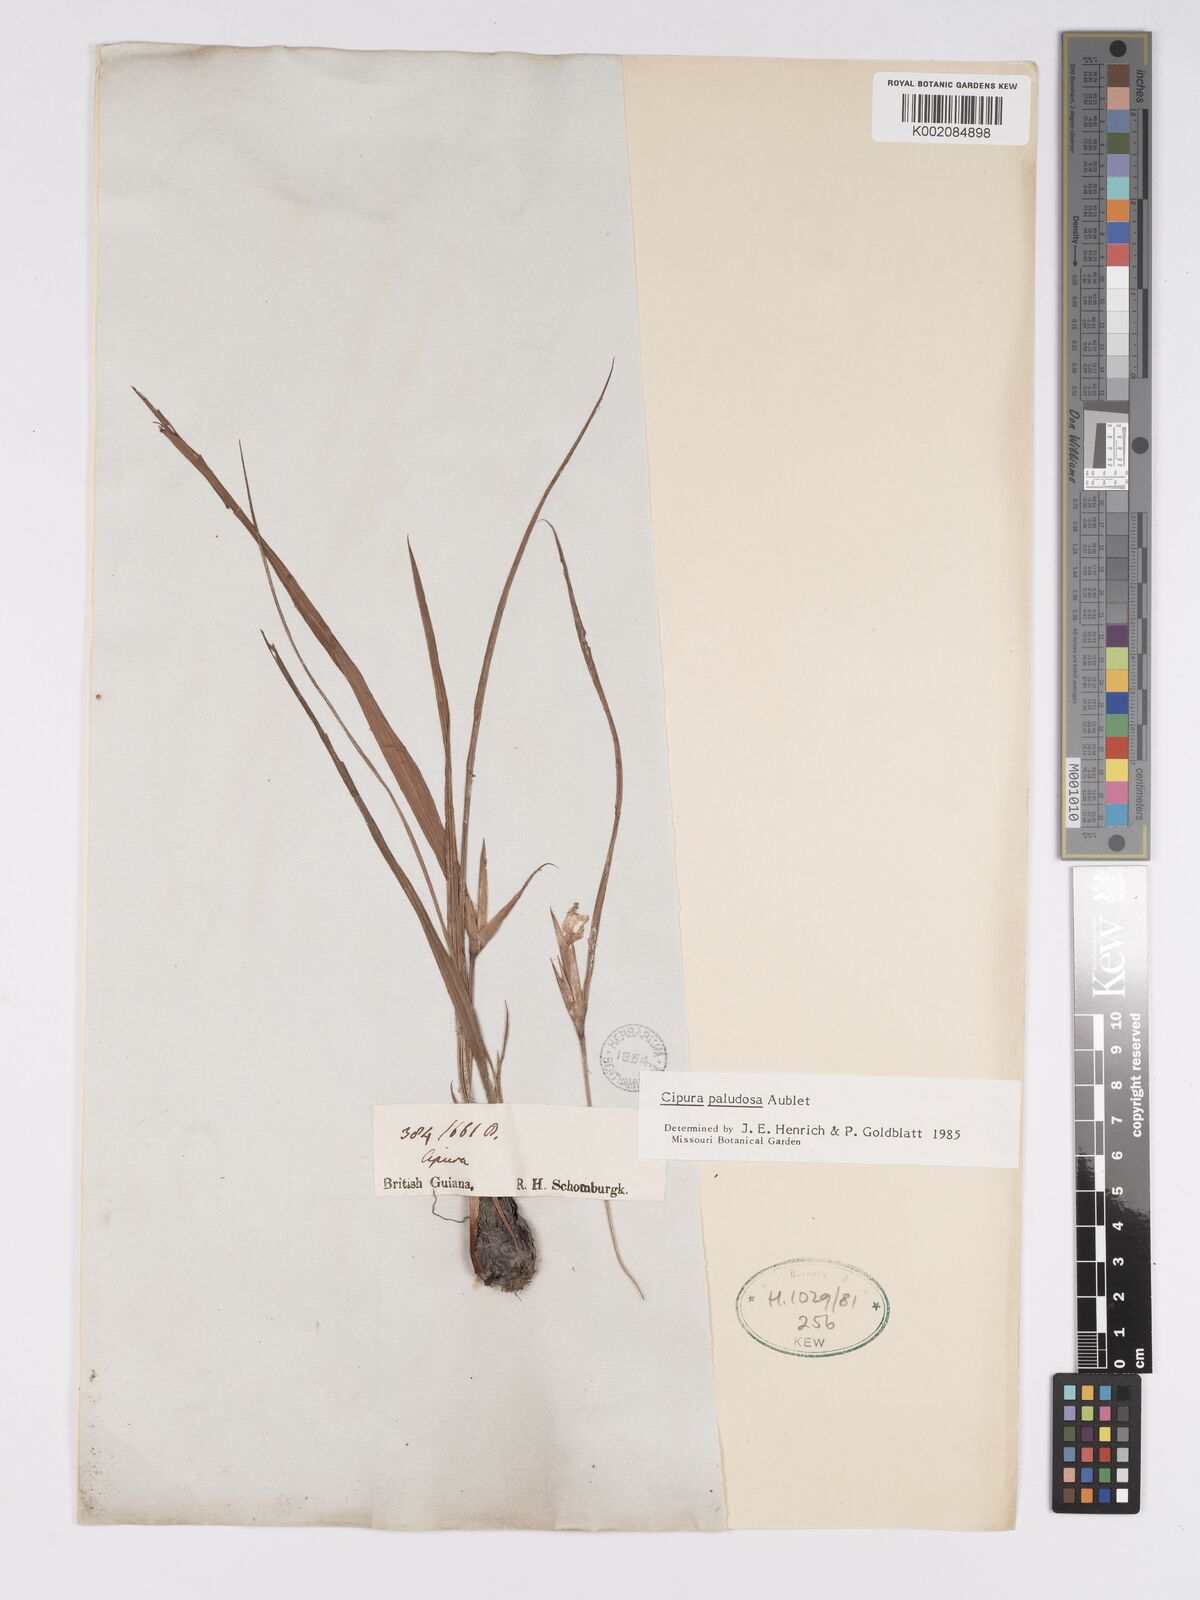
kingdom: Plantae
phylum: Tracheophyta
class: Liliopsida
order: Asparagales
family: Iridaceae
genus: Cipura
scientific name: Cipura paludosa
